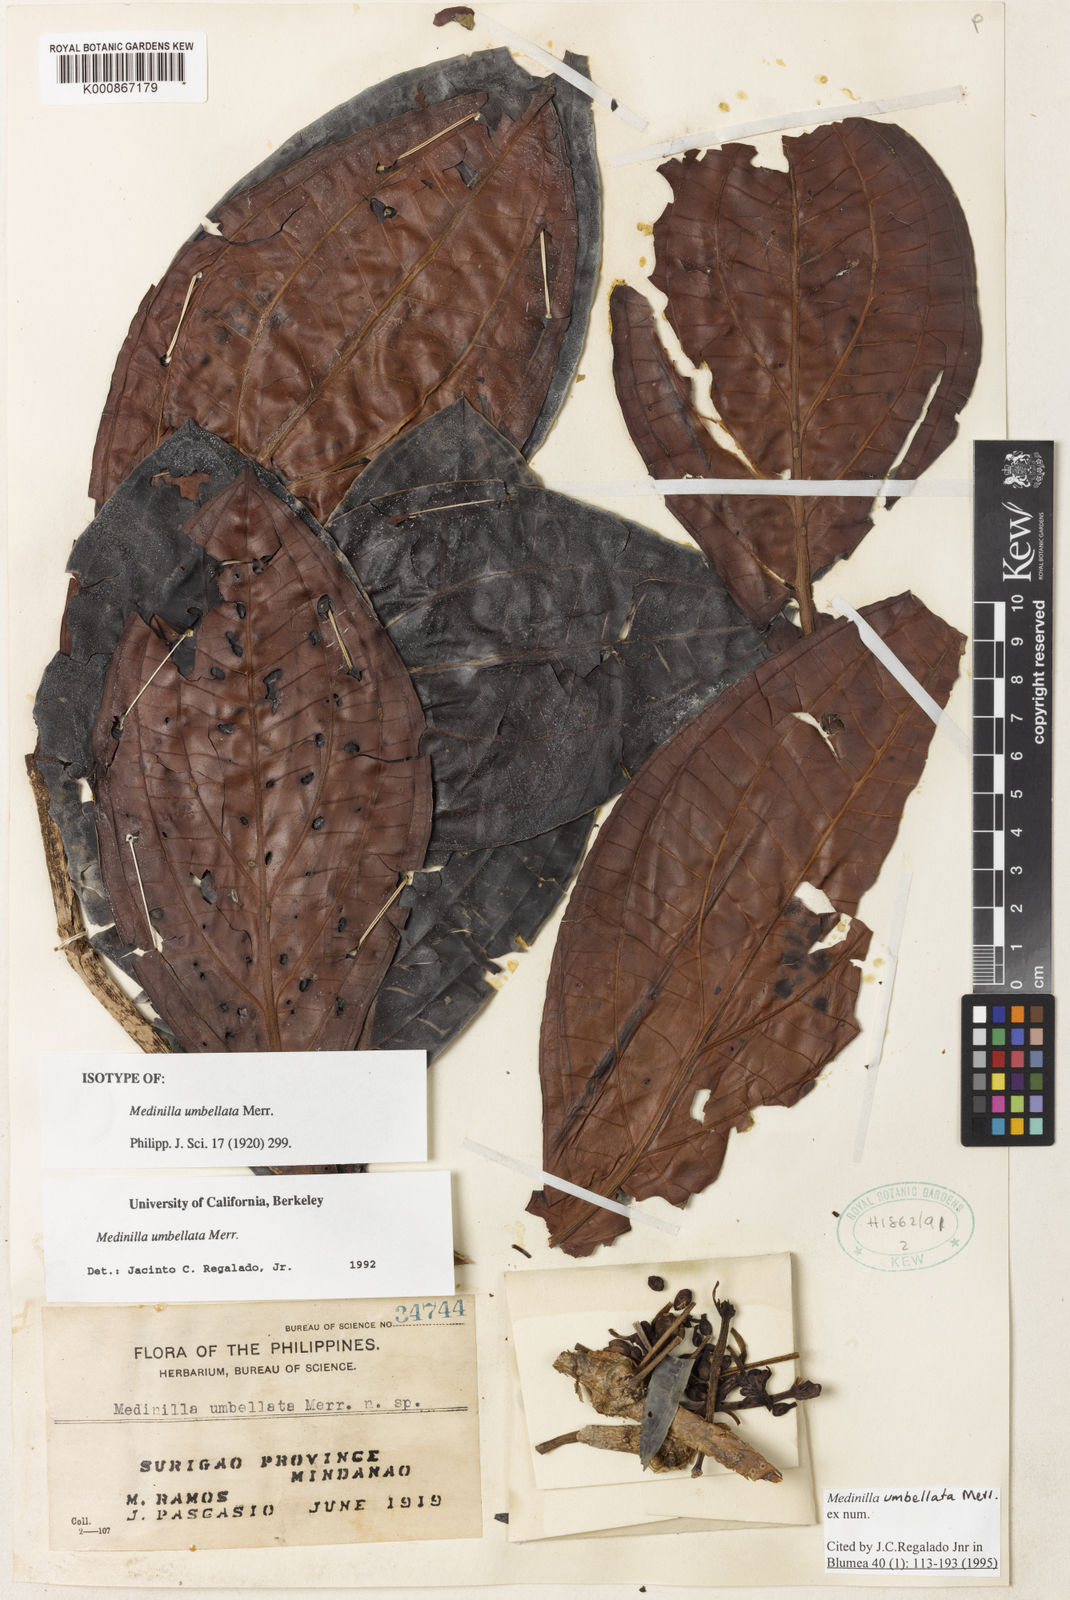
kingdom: Plantae
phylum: Tracheophyta
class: Magnoliopsida
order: Myrtales
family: Melastomataceae
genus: Medinilla
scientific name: Medinilla umbellata
